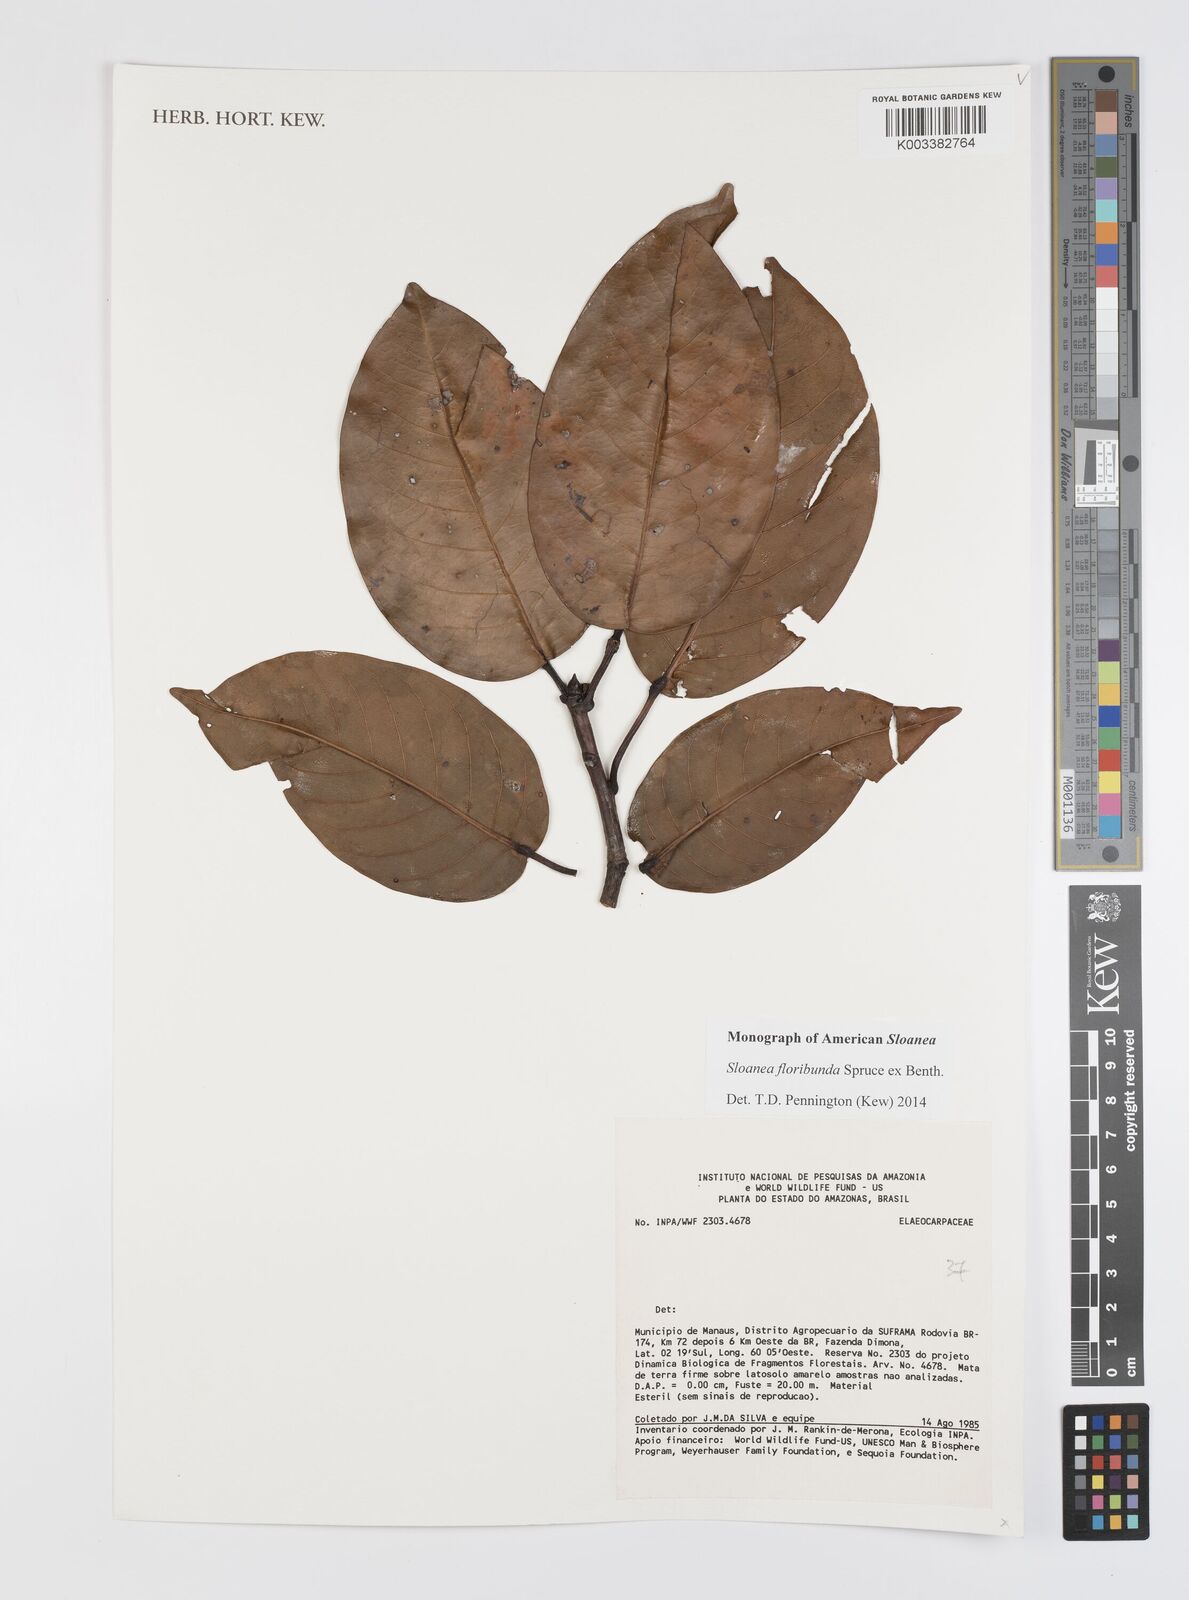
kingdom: Plantae
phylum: Tracheophyta
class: Magnoliopsida
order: Oxalidales
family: Elaeocarpaceae
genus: Sloanea
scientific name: Sloanea floribunda
